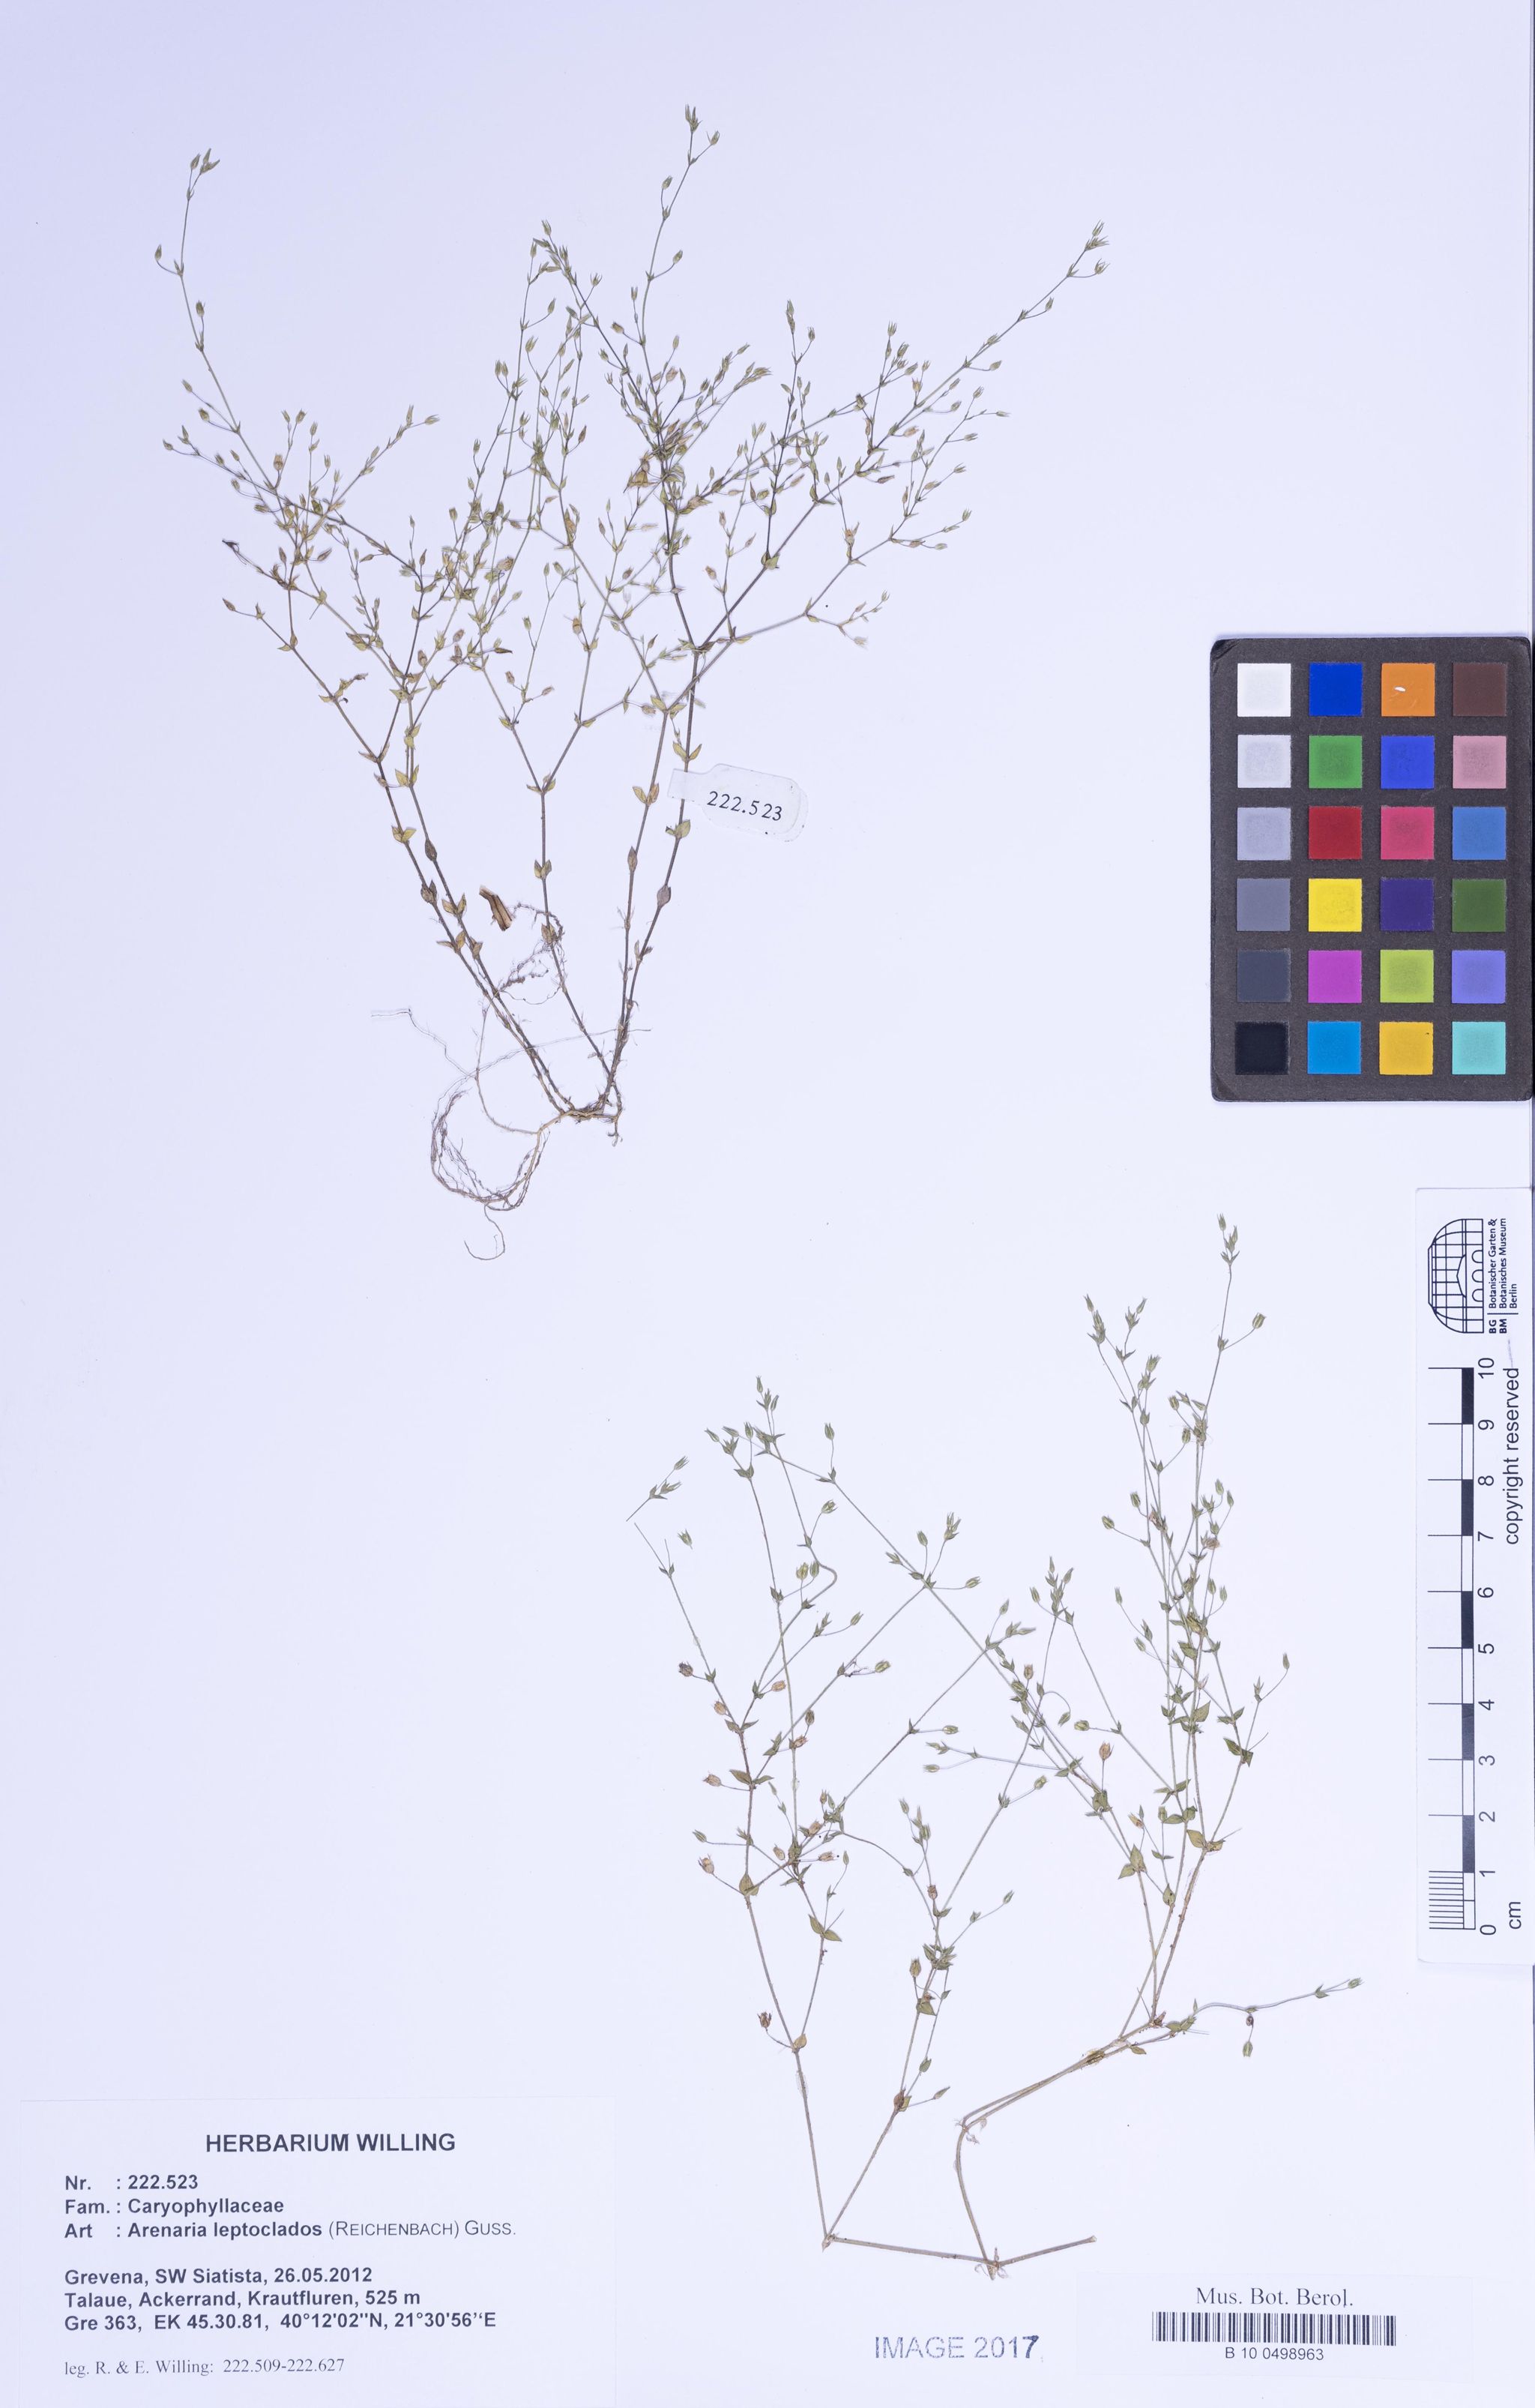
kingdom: Plantae
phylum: Tracheophyta
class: Magnoliopsida
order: Caryophyllales
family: Caryophyllaceae
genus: Arenaria
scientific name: Arenaria leptoclados
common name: Thyme-leaved sandwort
